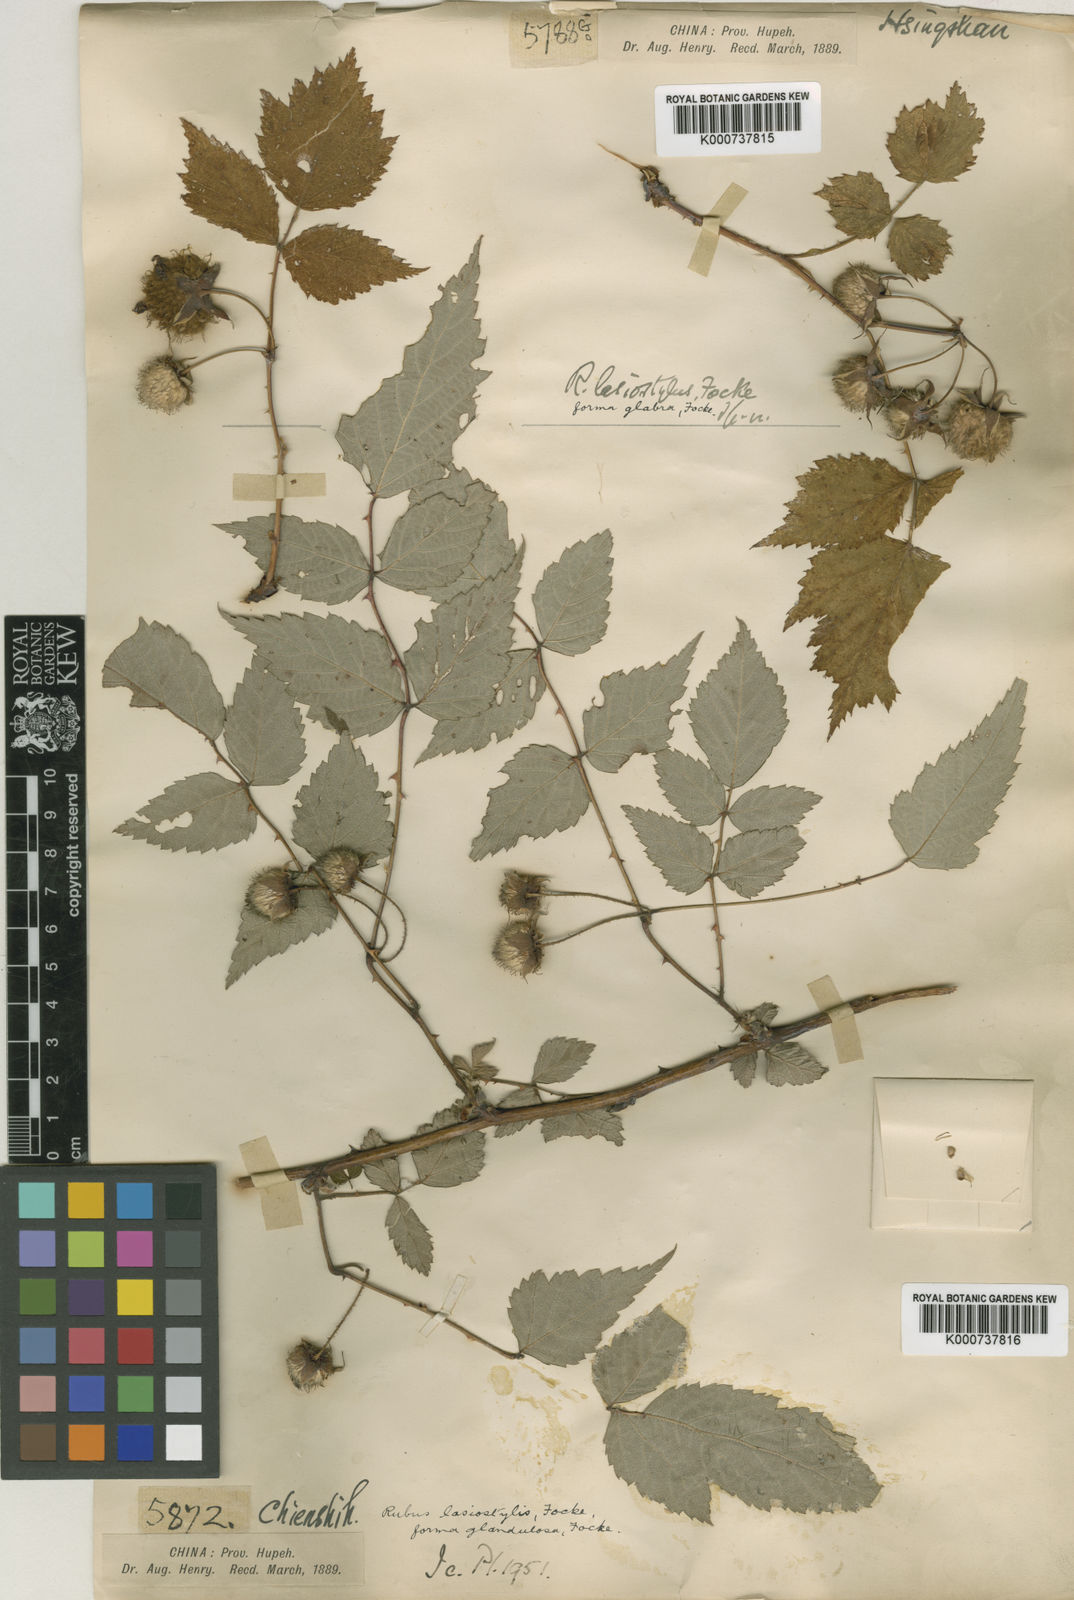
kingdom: Plantae
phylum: Tracheophyta
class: Magnoliopsida
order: Rosales
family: Rosaceae
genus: Rubus
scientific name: Rubus eucalyptus
